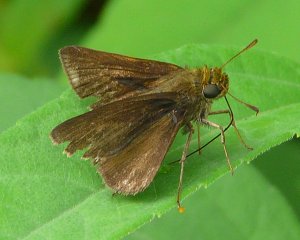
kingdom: Animalia
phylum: Arthropoda
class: Insecta
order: Lepidoptera
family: Hesperiidae
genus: Euphyes
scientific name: Euphyes vestris
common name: Dun Skipper
